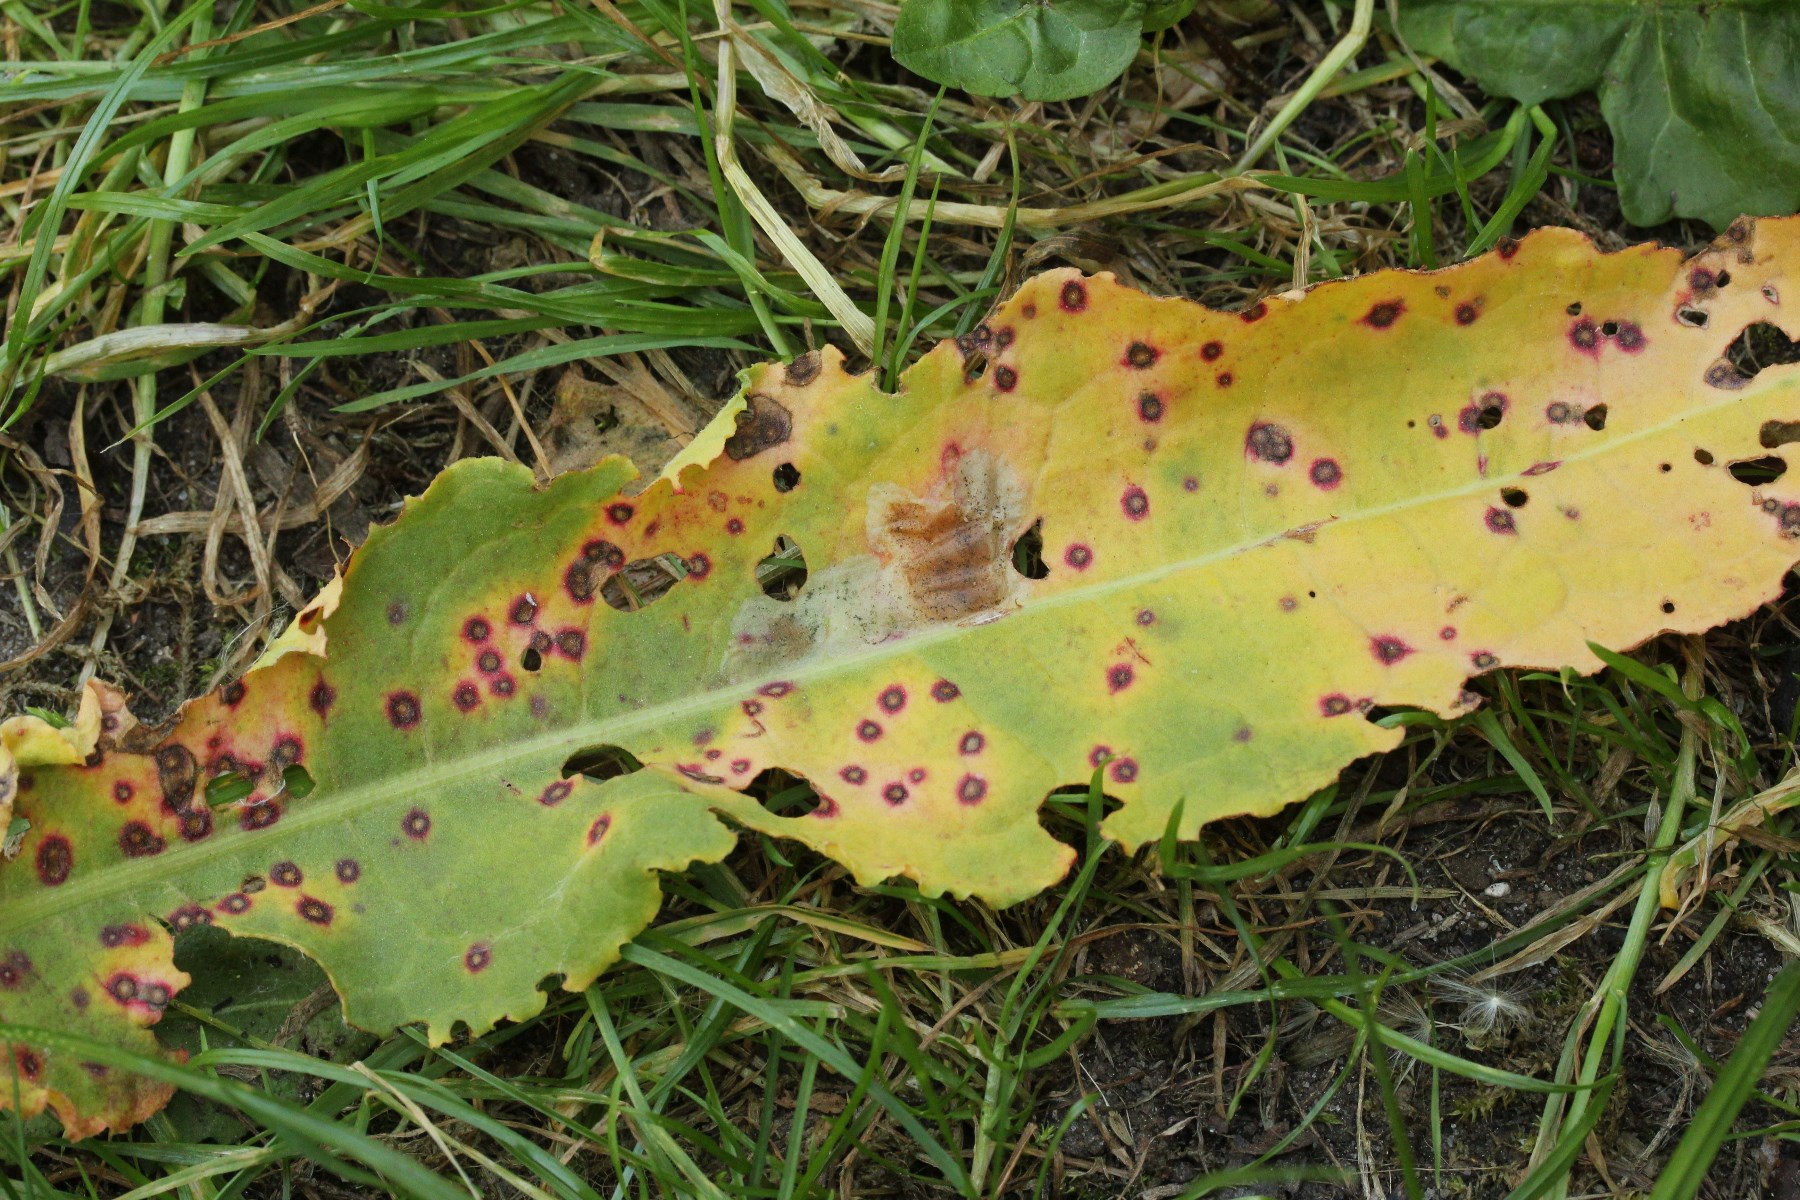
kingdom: Fungi
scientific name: Fungi
